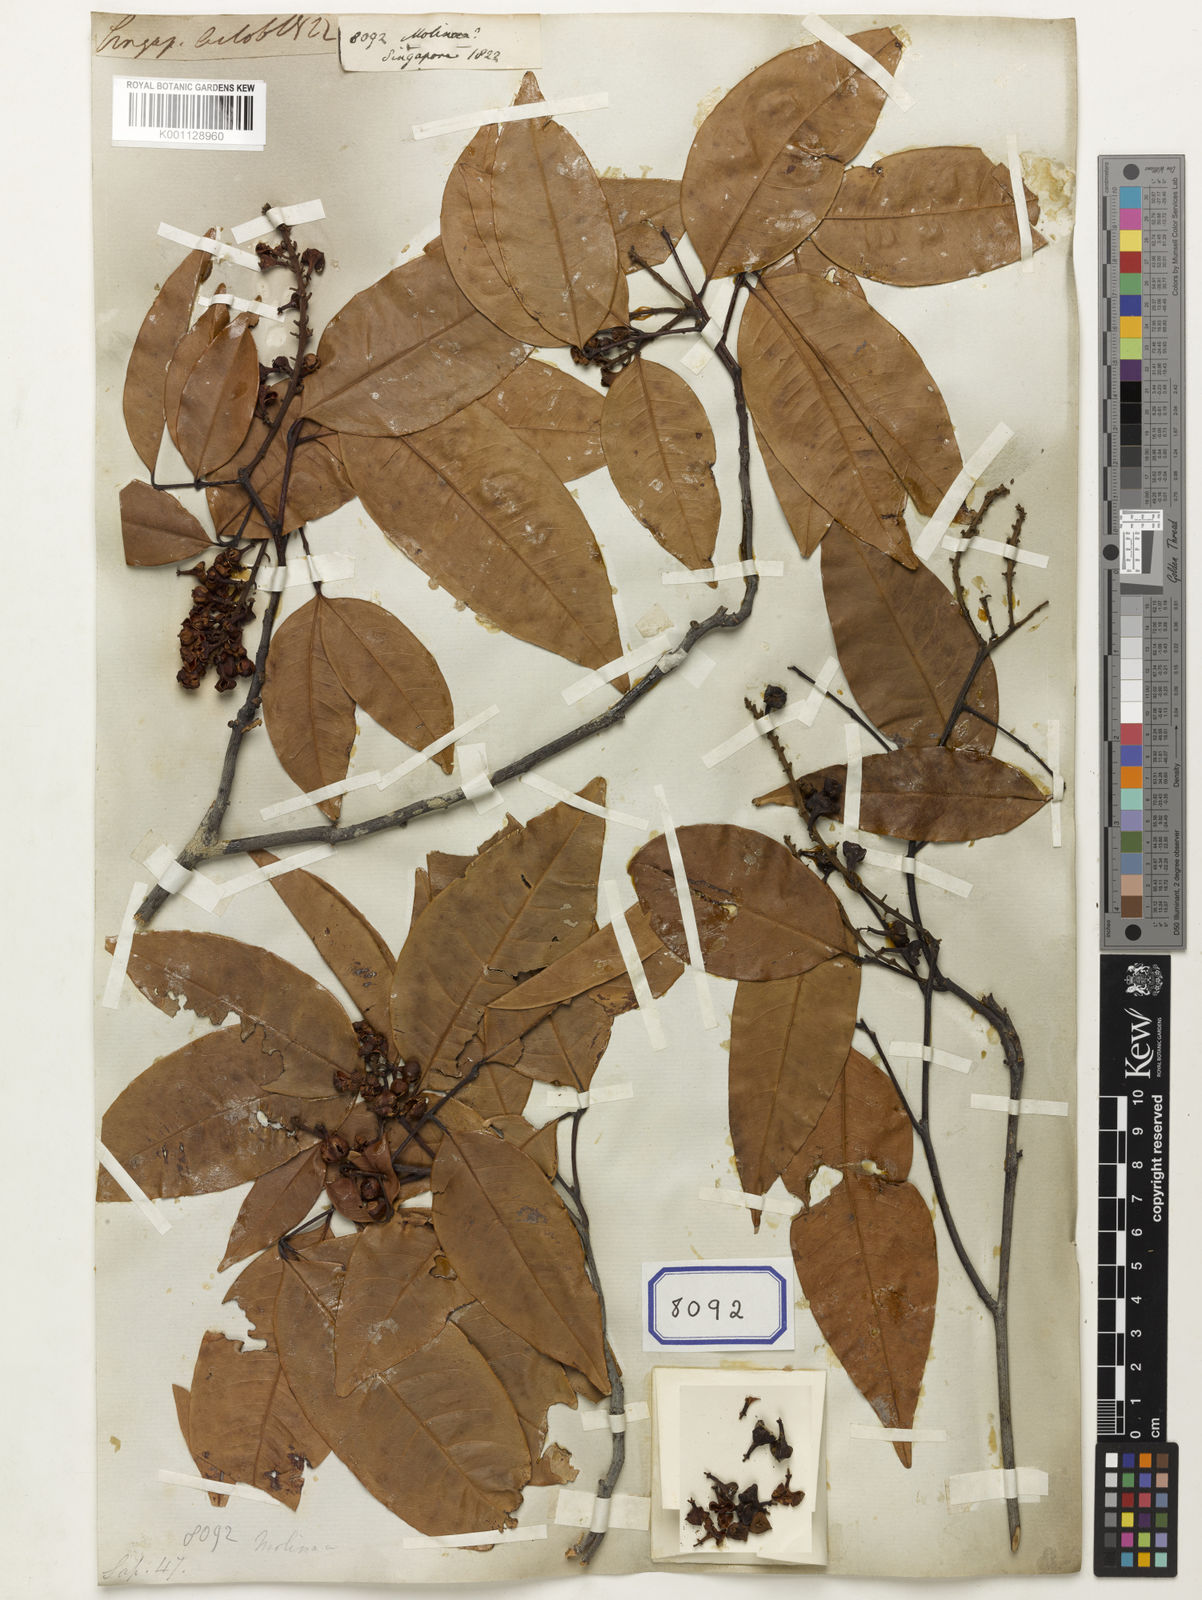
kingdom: Plantae
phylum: Tracheophyta
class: Magnoliopsida
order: Sapindales
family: Sapindaceae
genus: Molinaea
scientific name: Molinaea
